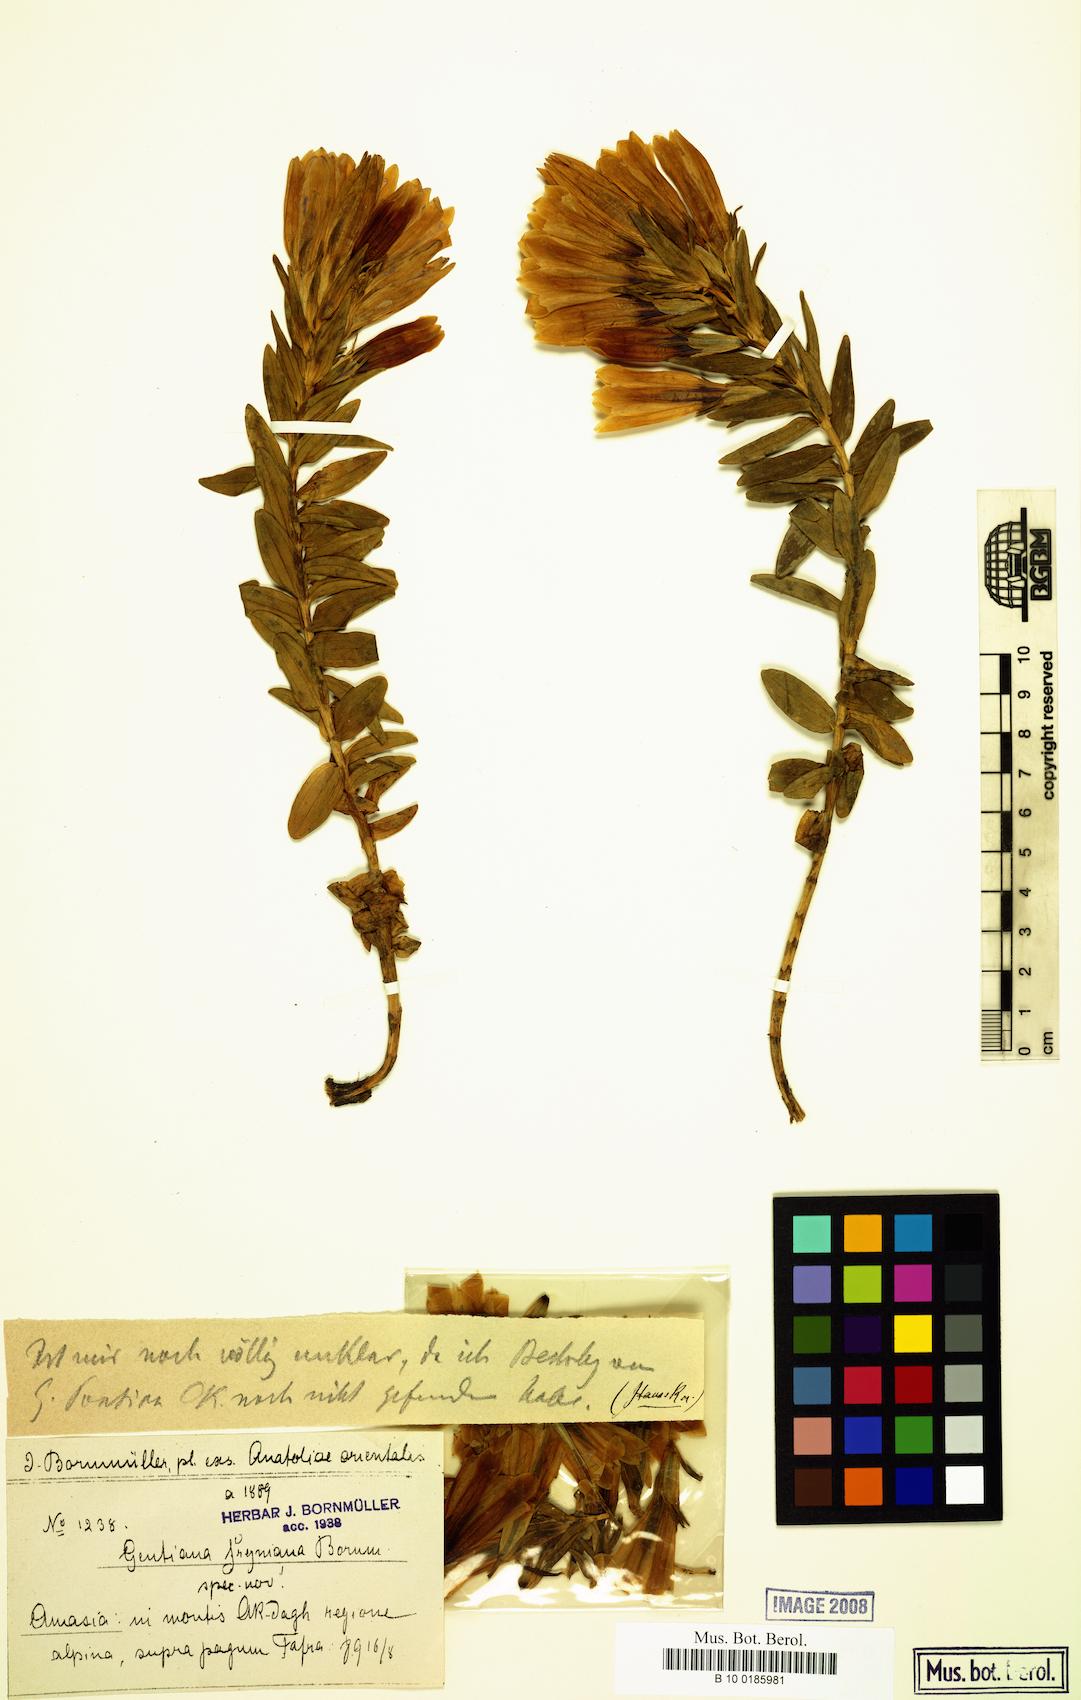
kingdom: Plantae
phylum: Tracheophyta
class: Magnoliopsida
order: Gentianales
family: Gentianaceae
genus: Gentiana
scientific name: Gentiana septemfida
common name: Crested gentian
